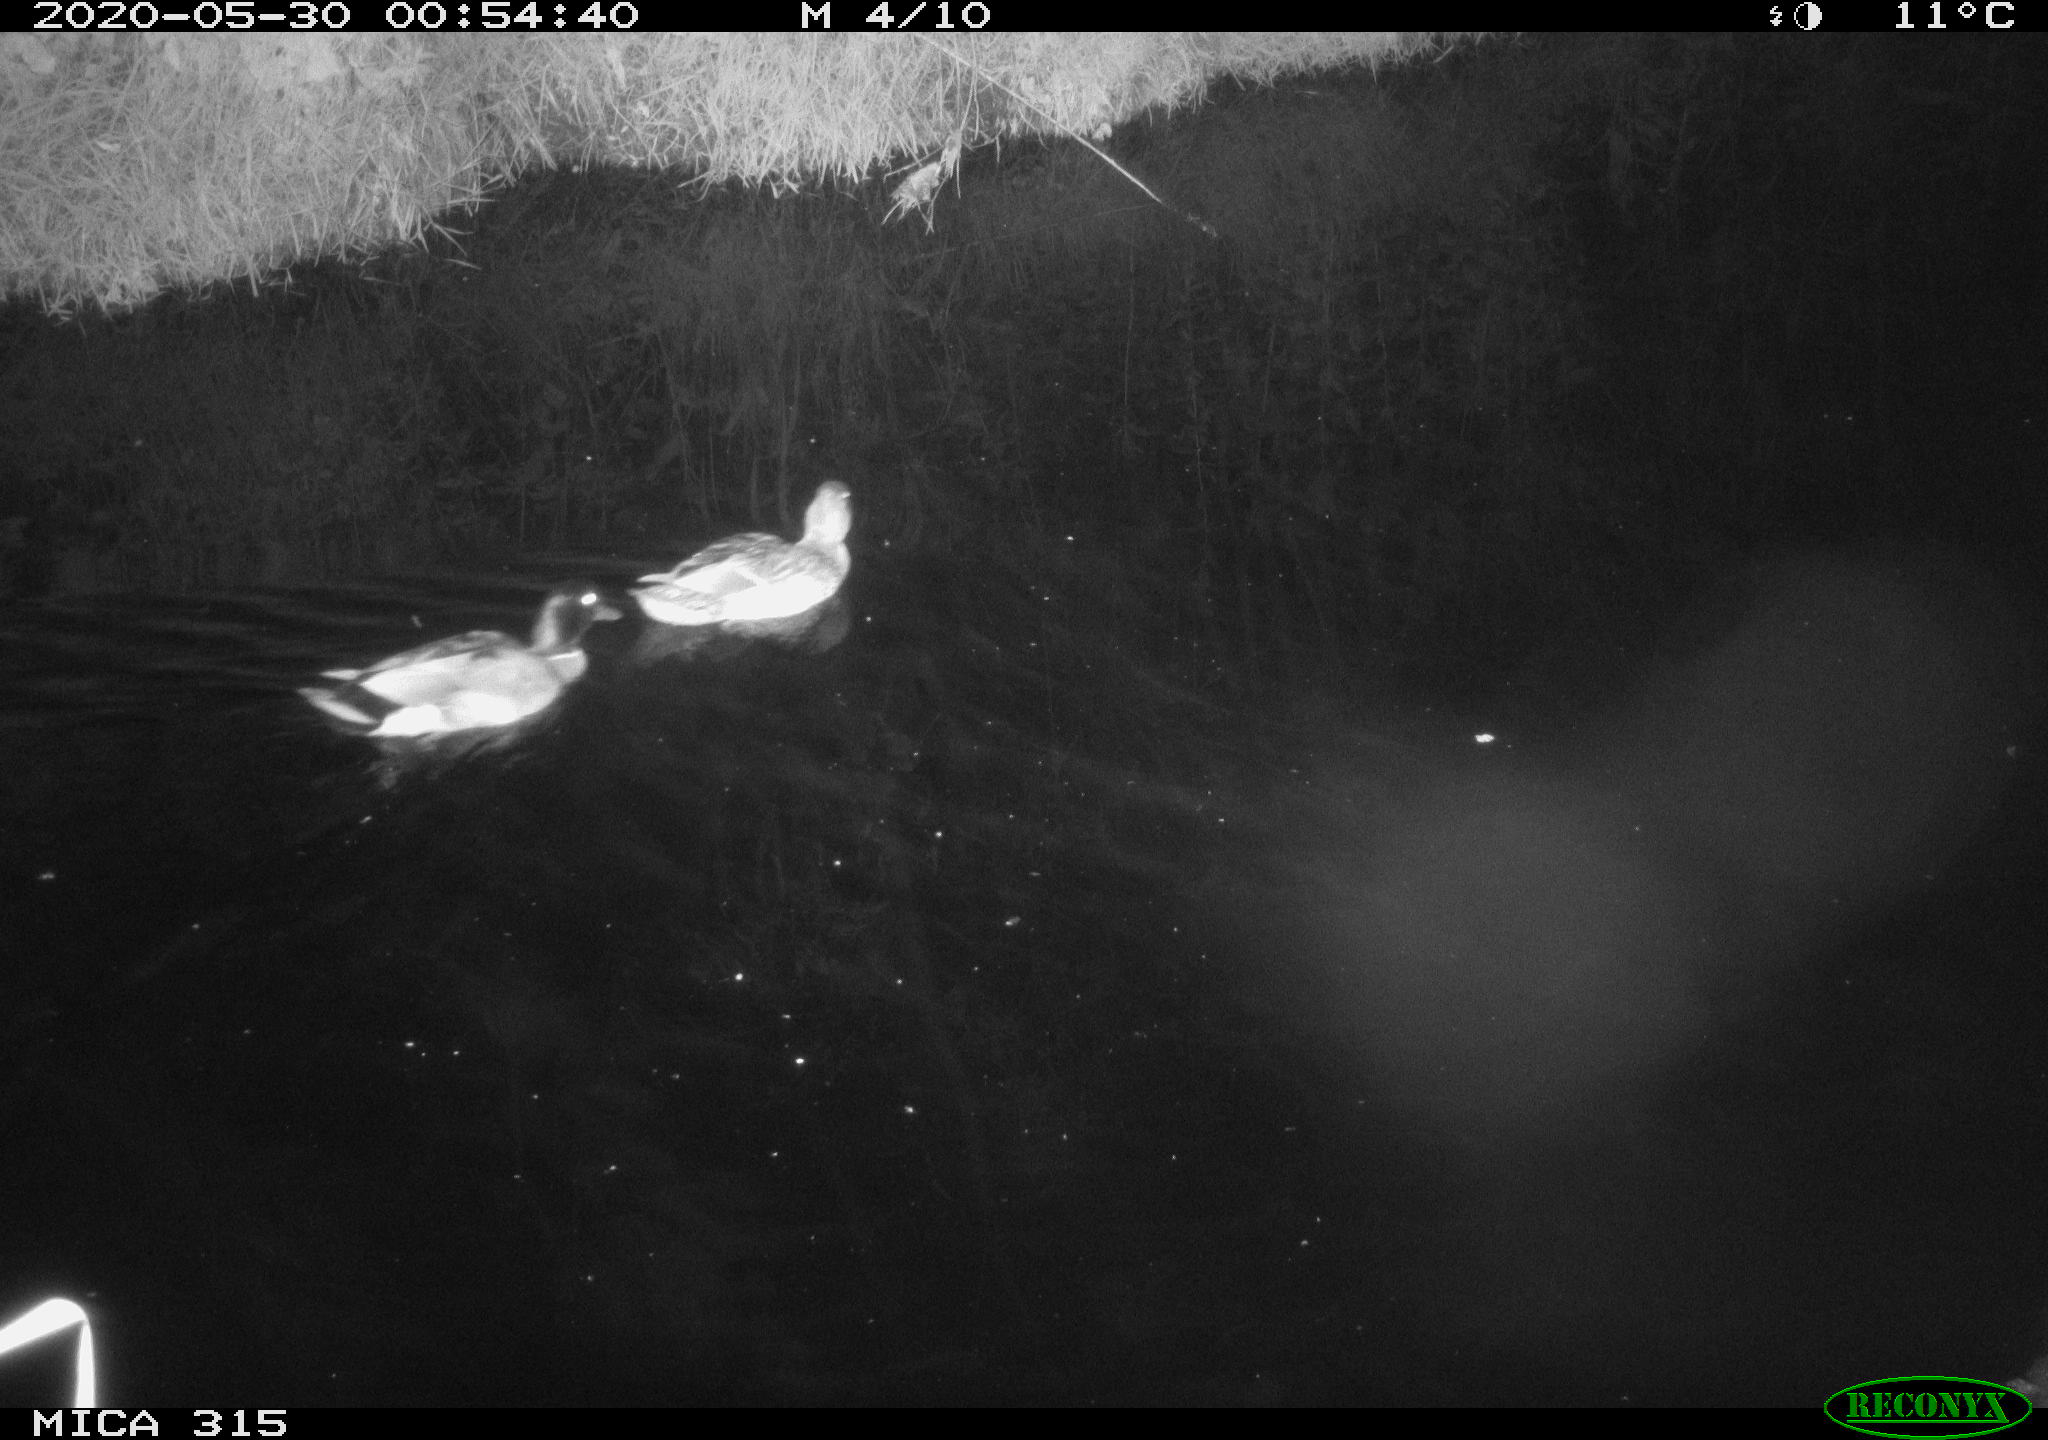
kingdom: Animalia
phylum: Chordata
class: Aves
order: Anseriformes
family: Anatidae
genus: Anas
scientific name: Anas platyrhynchos
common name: Mallard
